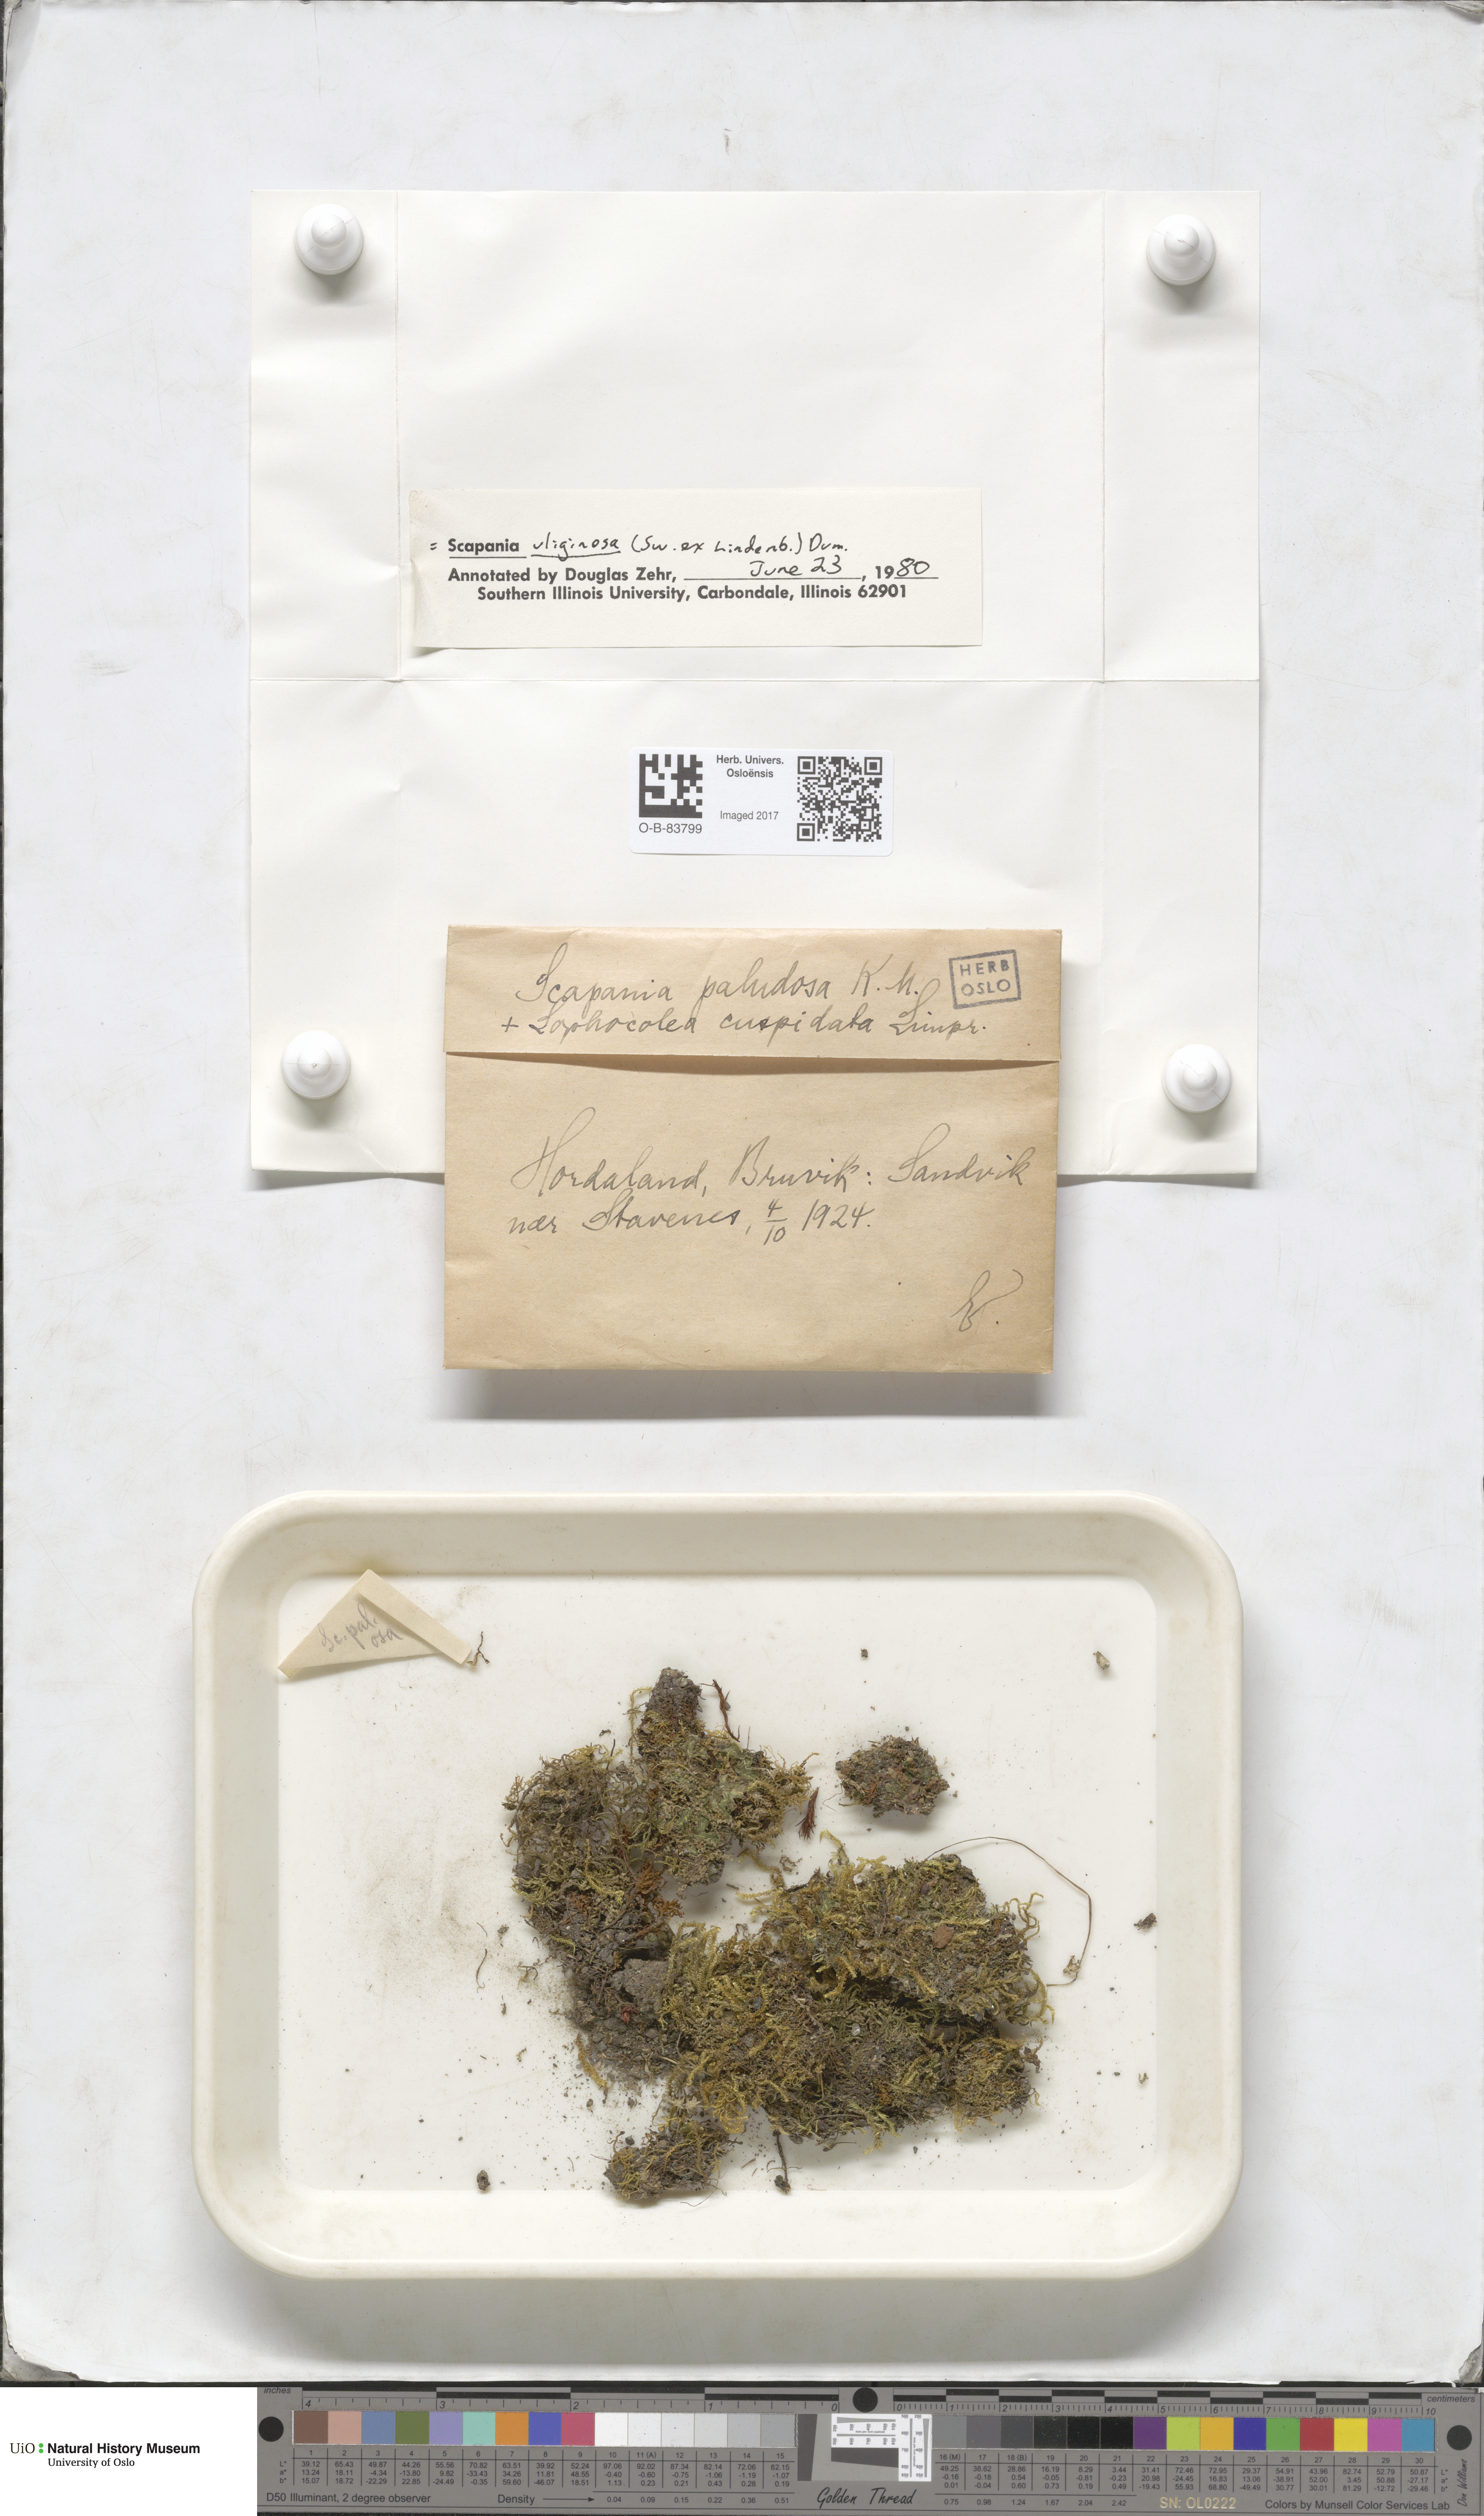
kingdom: Plantae
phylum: Marchantiophyta
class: Jungermanniopsida
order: Jungermanniales
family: Scapaniaceae
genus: Scapania
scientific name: Scapania uliginosa
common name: Marsh earwort
